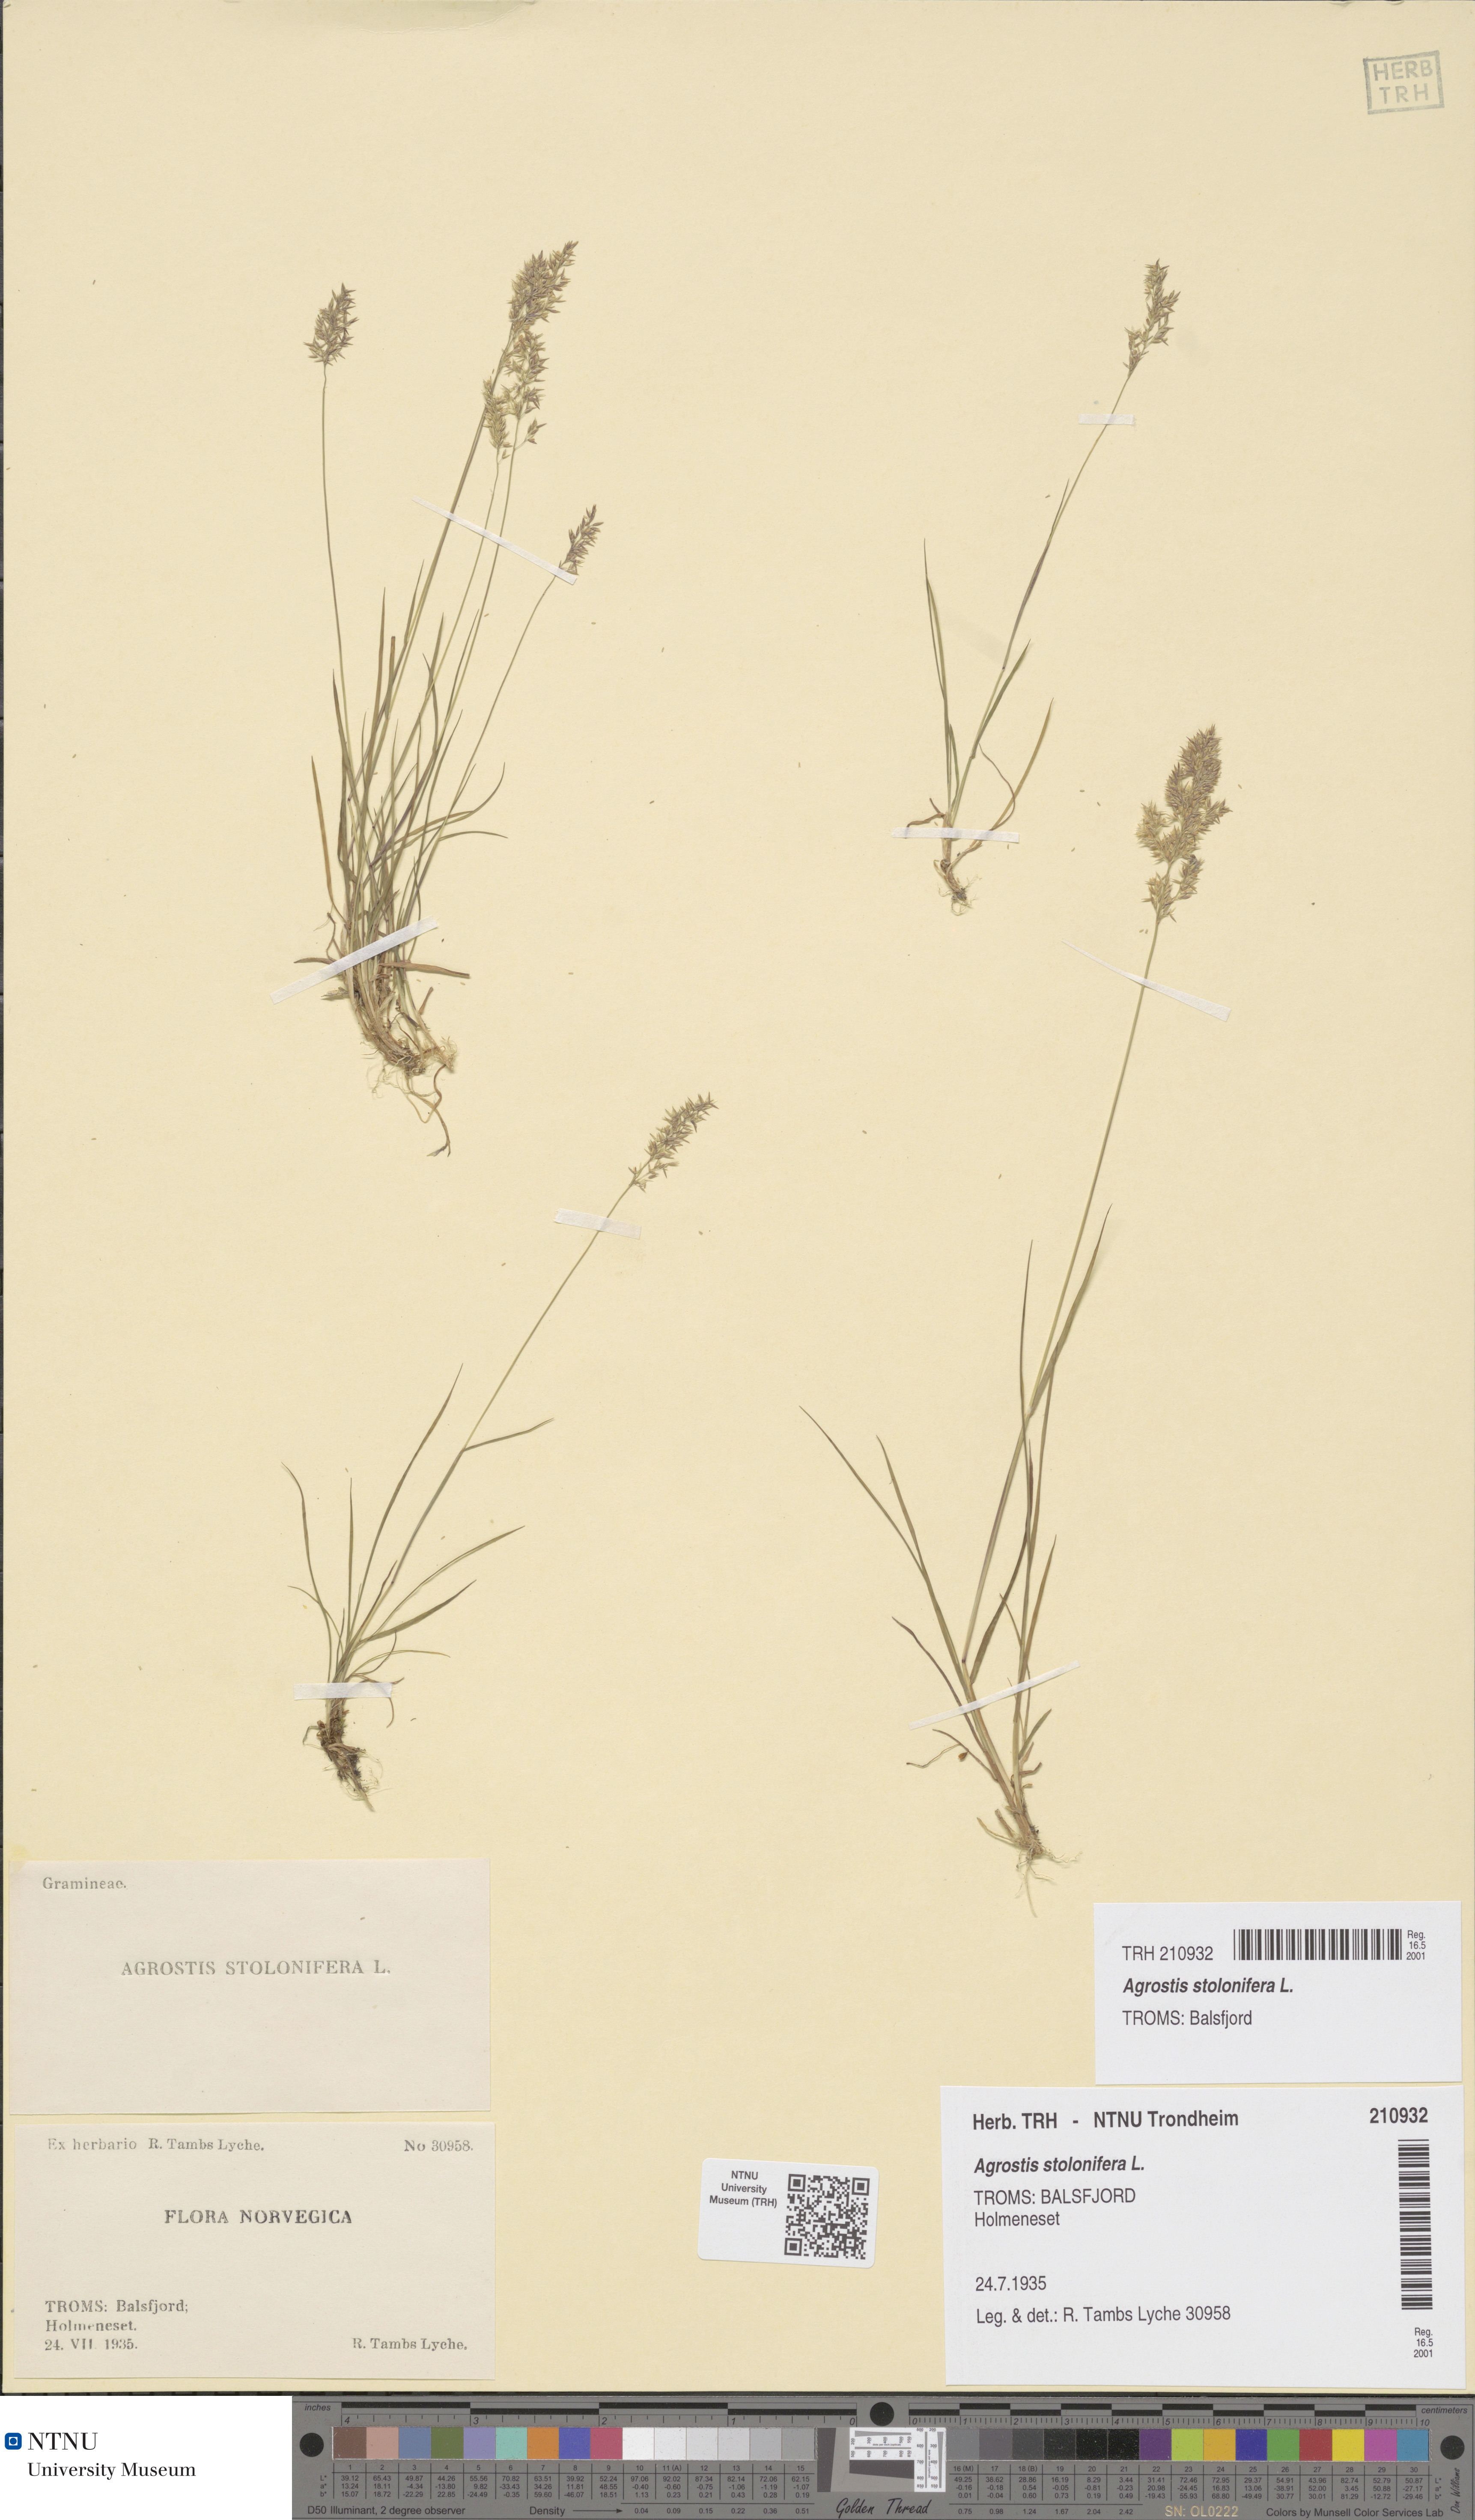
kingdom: Plantae
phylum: Tracheophyta
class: Liliopsida
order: Poales
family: Poaceae
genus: Agrostis
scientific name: Agrostis stolonifera
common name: Creeping bentgrass
